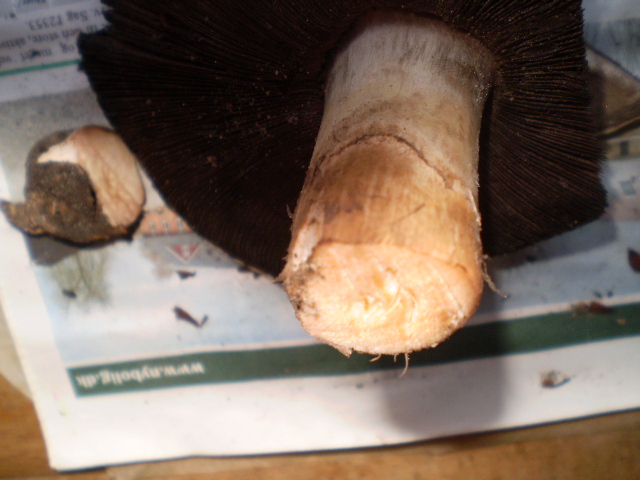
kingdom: Fungi
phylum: Basidiomycota
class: Agaricomycetes
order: Agaricales
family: Agaricaceae
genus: Agaricus
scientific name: Agaricus litoralis
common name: kyst-champignon
